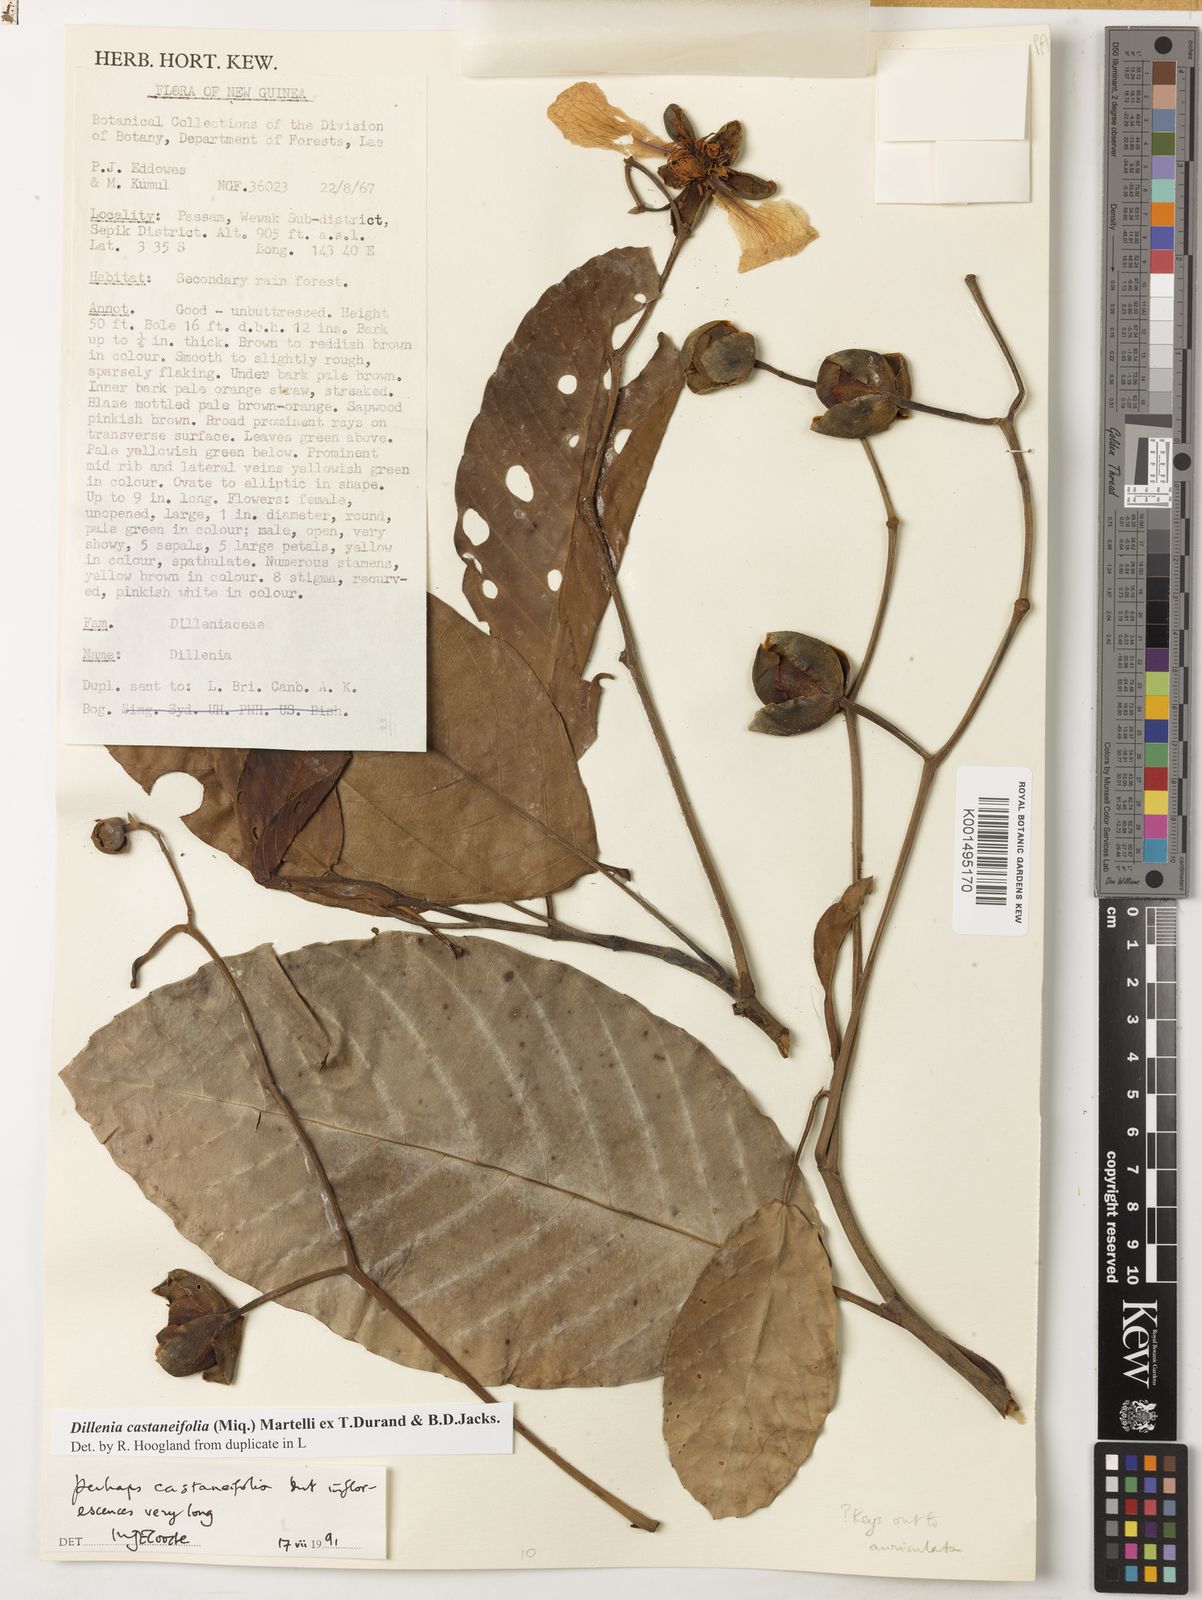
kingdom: Plantae
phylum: Tracheophyta
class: Magnoliopsida
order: Dilleniales
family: Dilleniaceae
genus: Dillenia
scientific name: Dillenia castaneifolia
